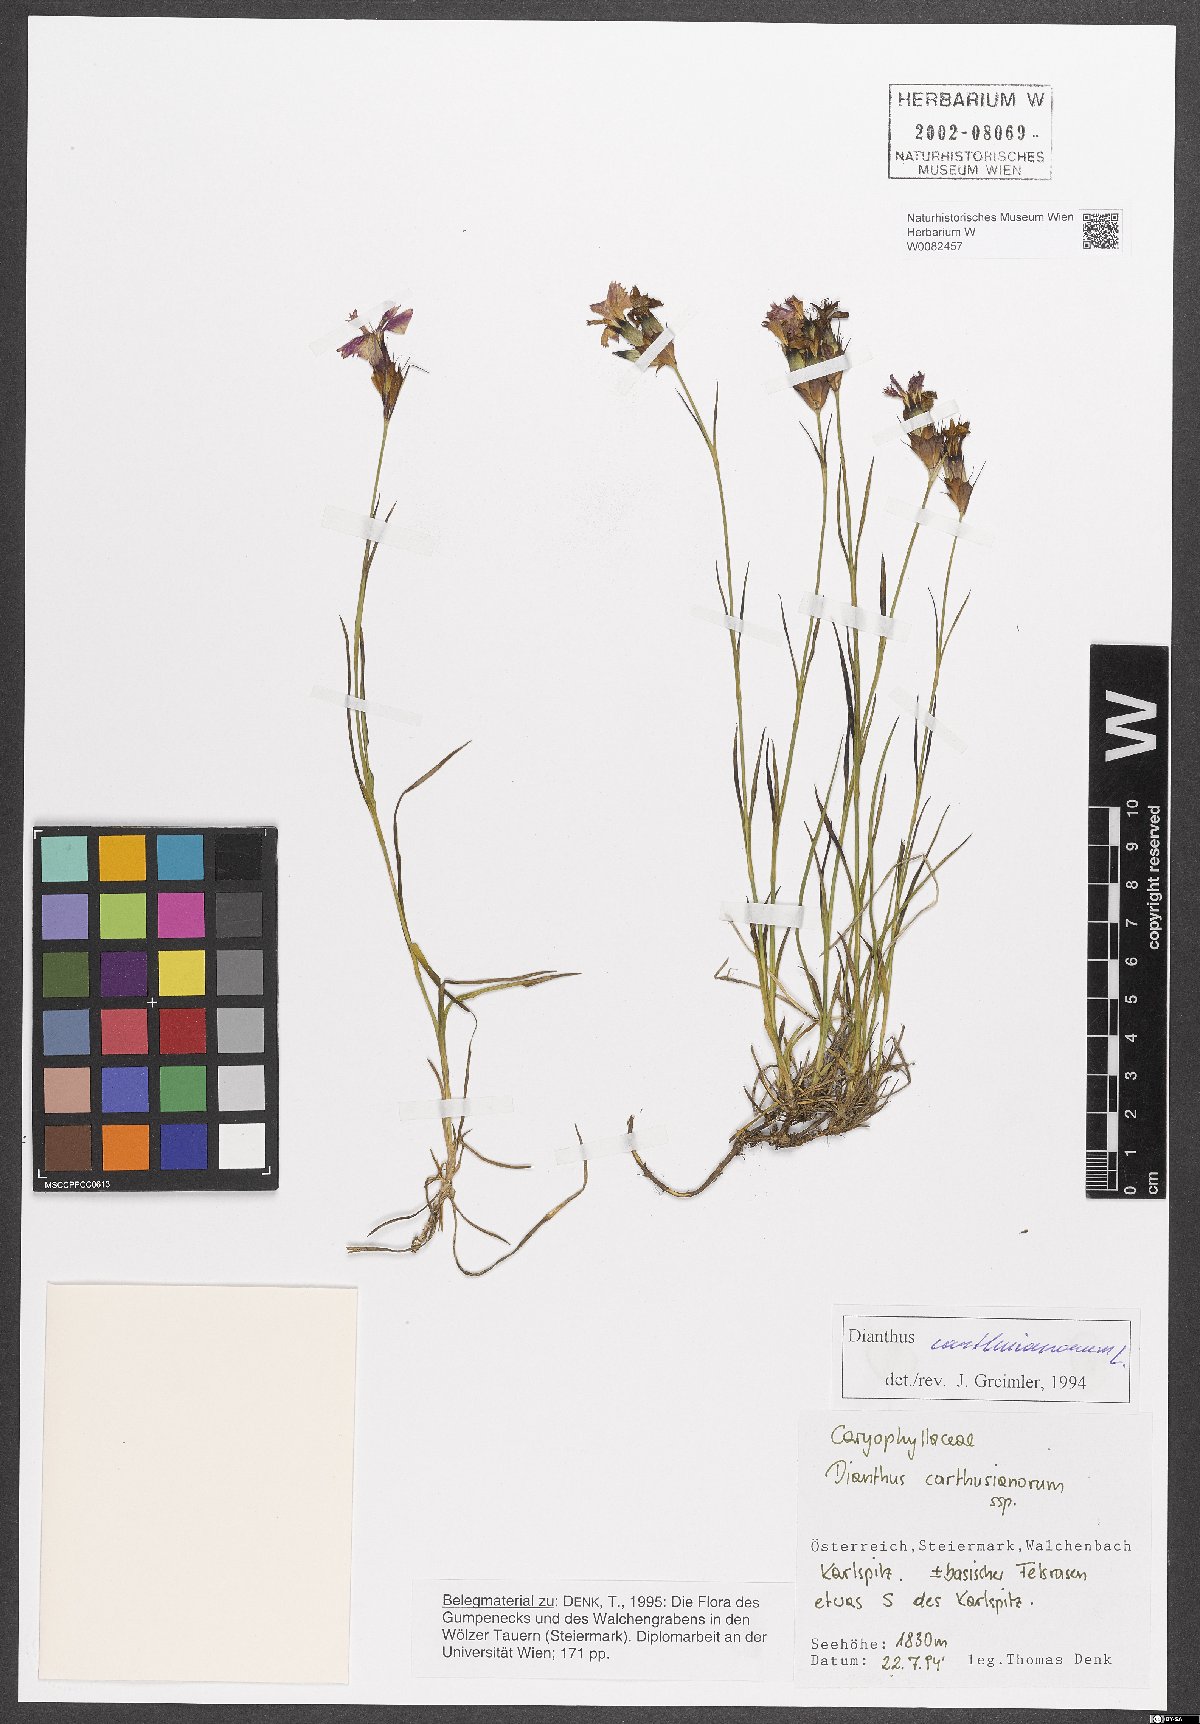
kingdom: Plantae
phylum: Tracheophyta
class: Magnoliopsida
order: Caryophyllales
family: Caryophyllaceae
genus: Dianthus
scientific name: Dianthus carthusianorum
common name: Carthusian pink
